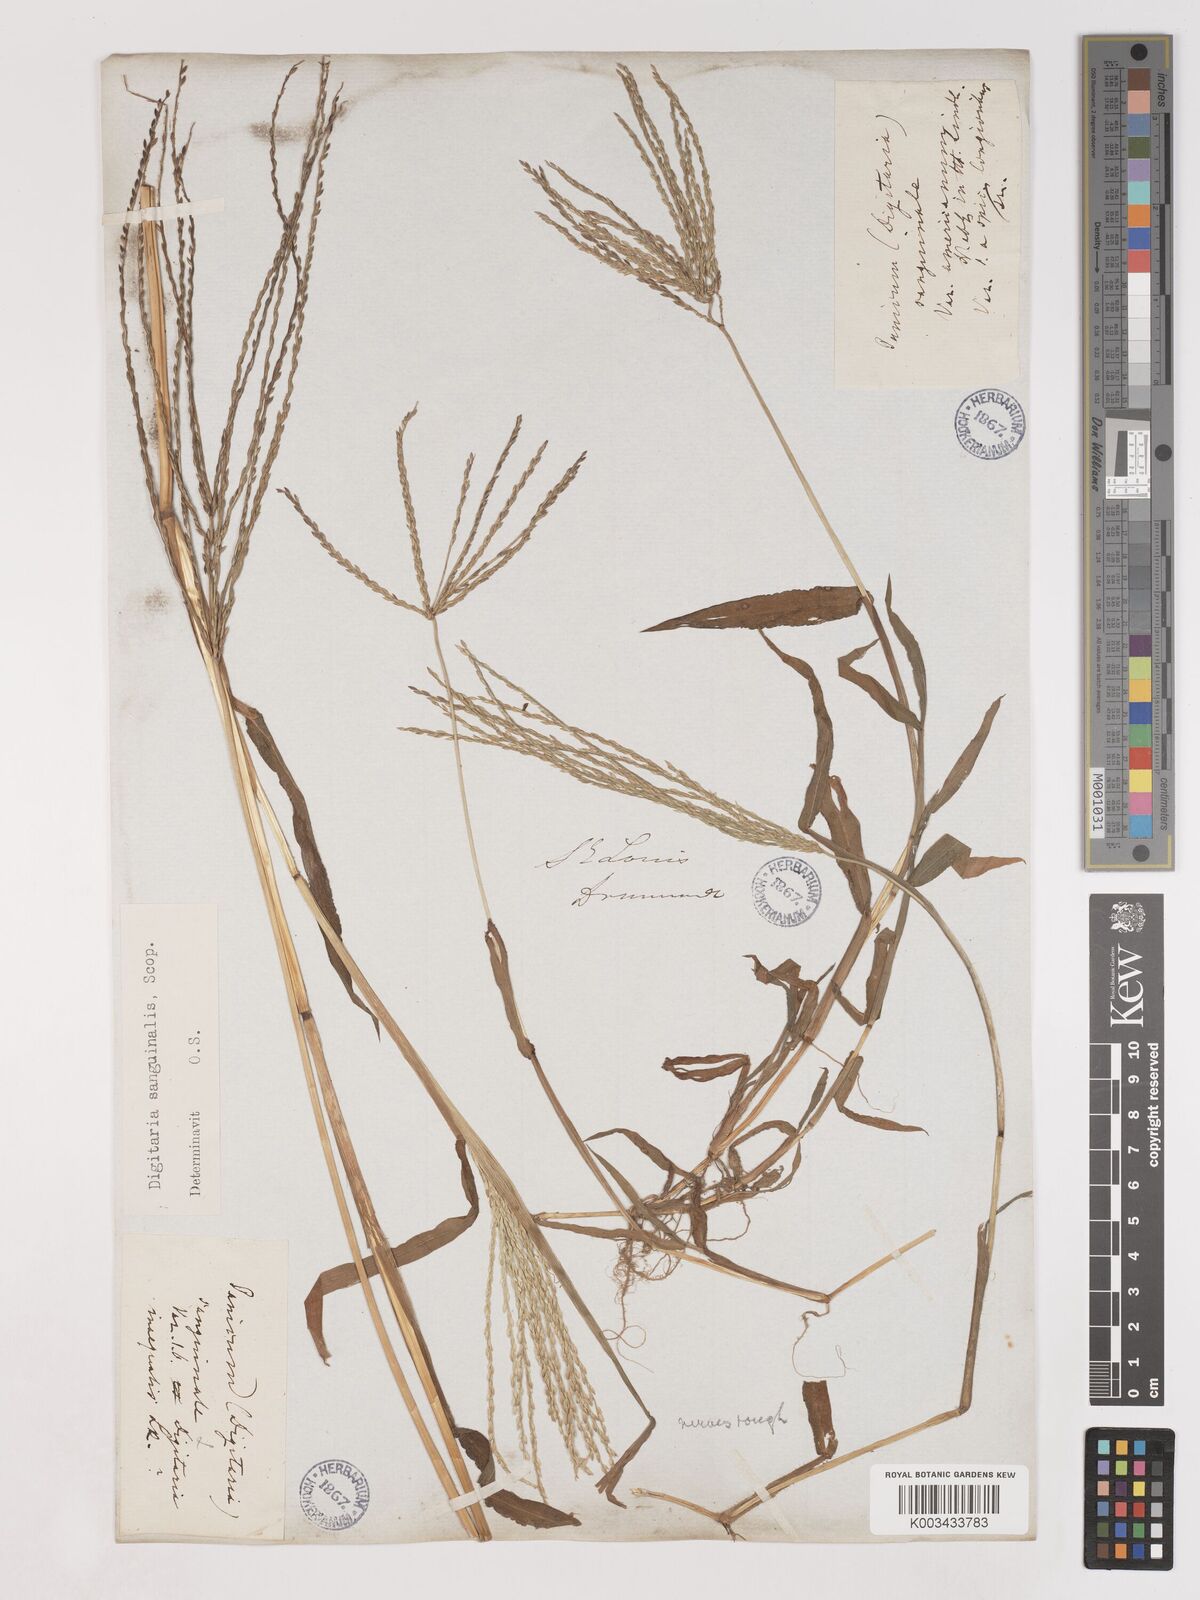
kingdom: Plantae
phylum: Tracheophyta
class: Liliopsida
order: Poales
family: Poaceae
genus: Digitaria
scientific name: Digitaria sanguinalis
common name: Hairy crabgrass
